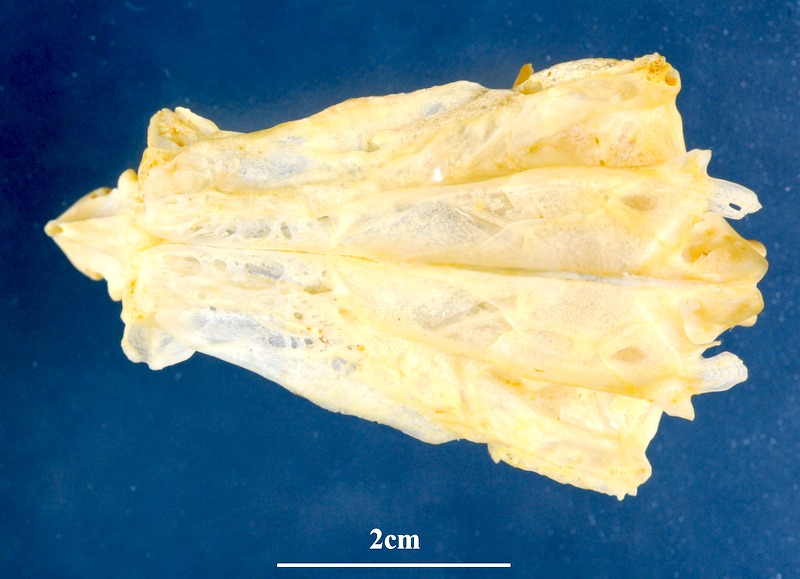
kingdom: Animalia
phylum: Chordata
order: Perciformes
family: Sparidae
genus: Pagellus
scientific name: Pagellus bogaraveo
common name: Red sea-bream
